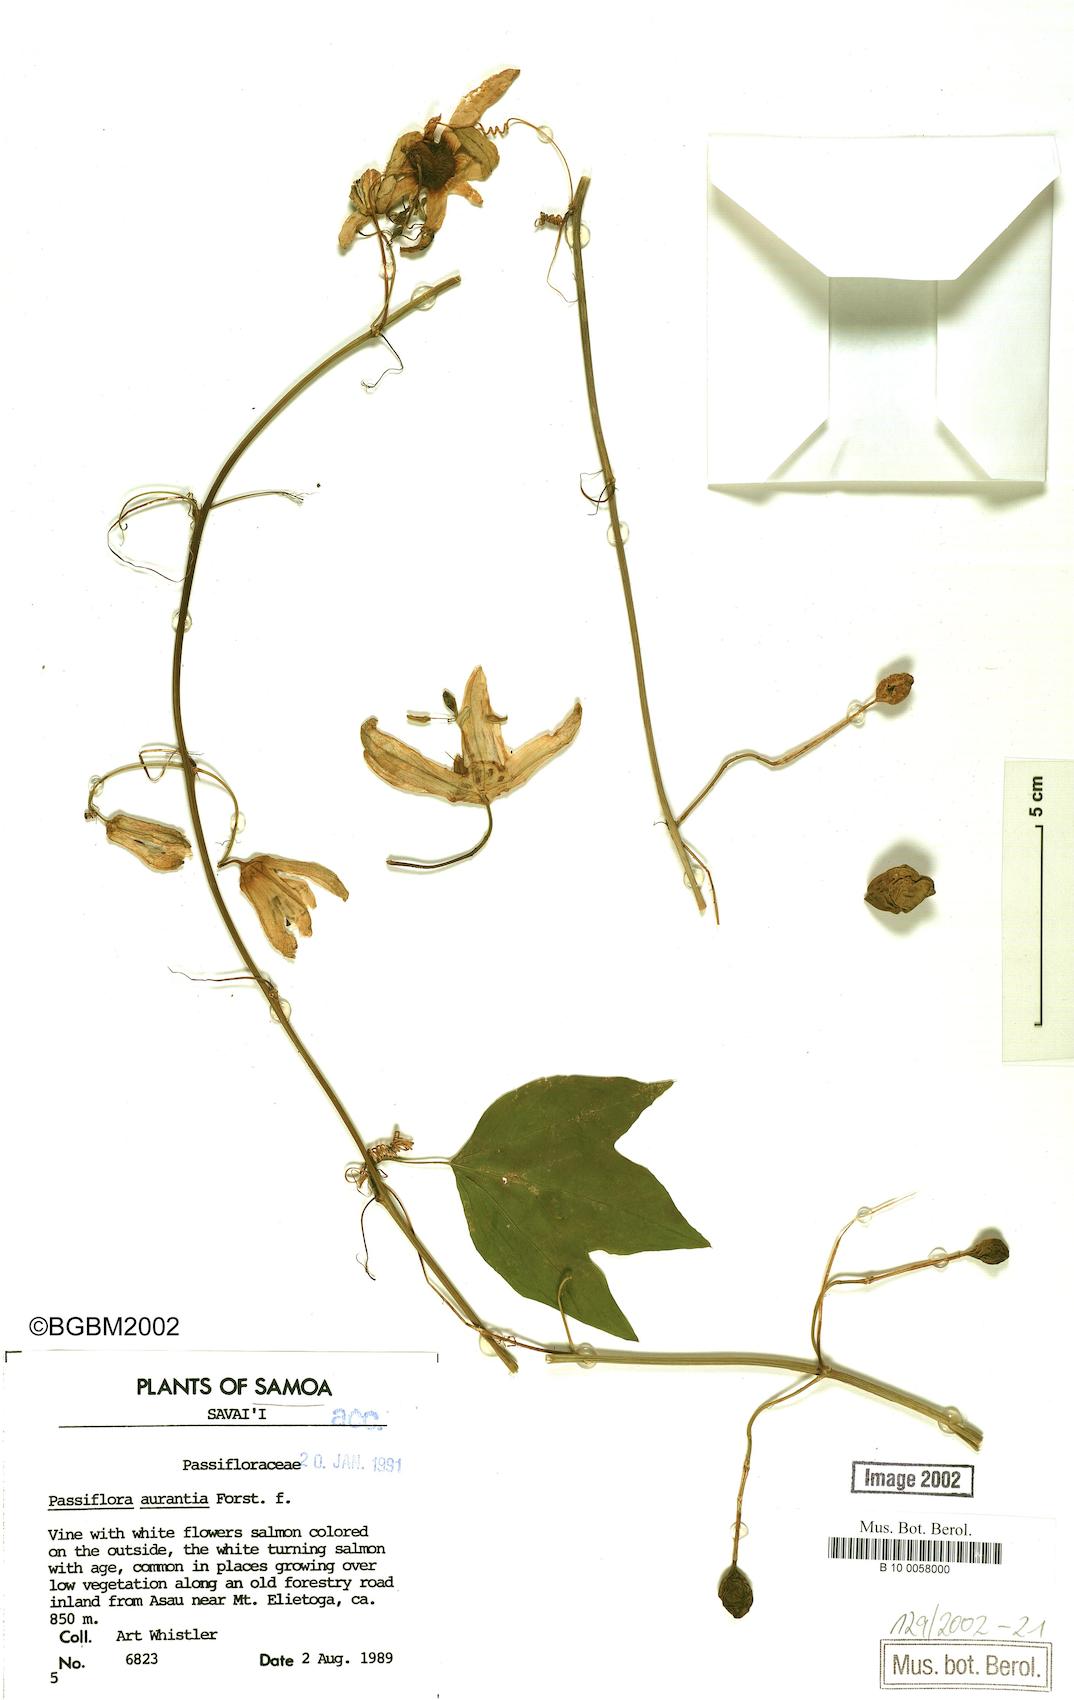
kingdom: Plantae
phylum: Tracheophyta
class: Magnoliopsida
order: Malpighiales
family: Passifloraceae
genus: Passiflora
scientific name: Passiflora aurantia
